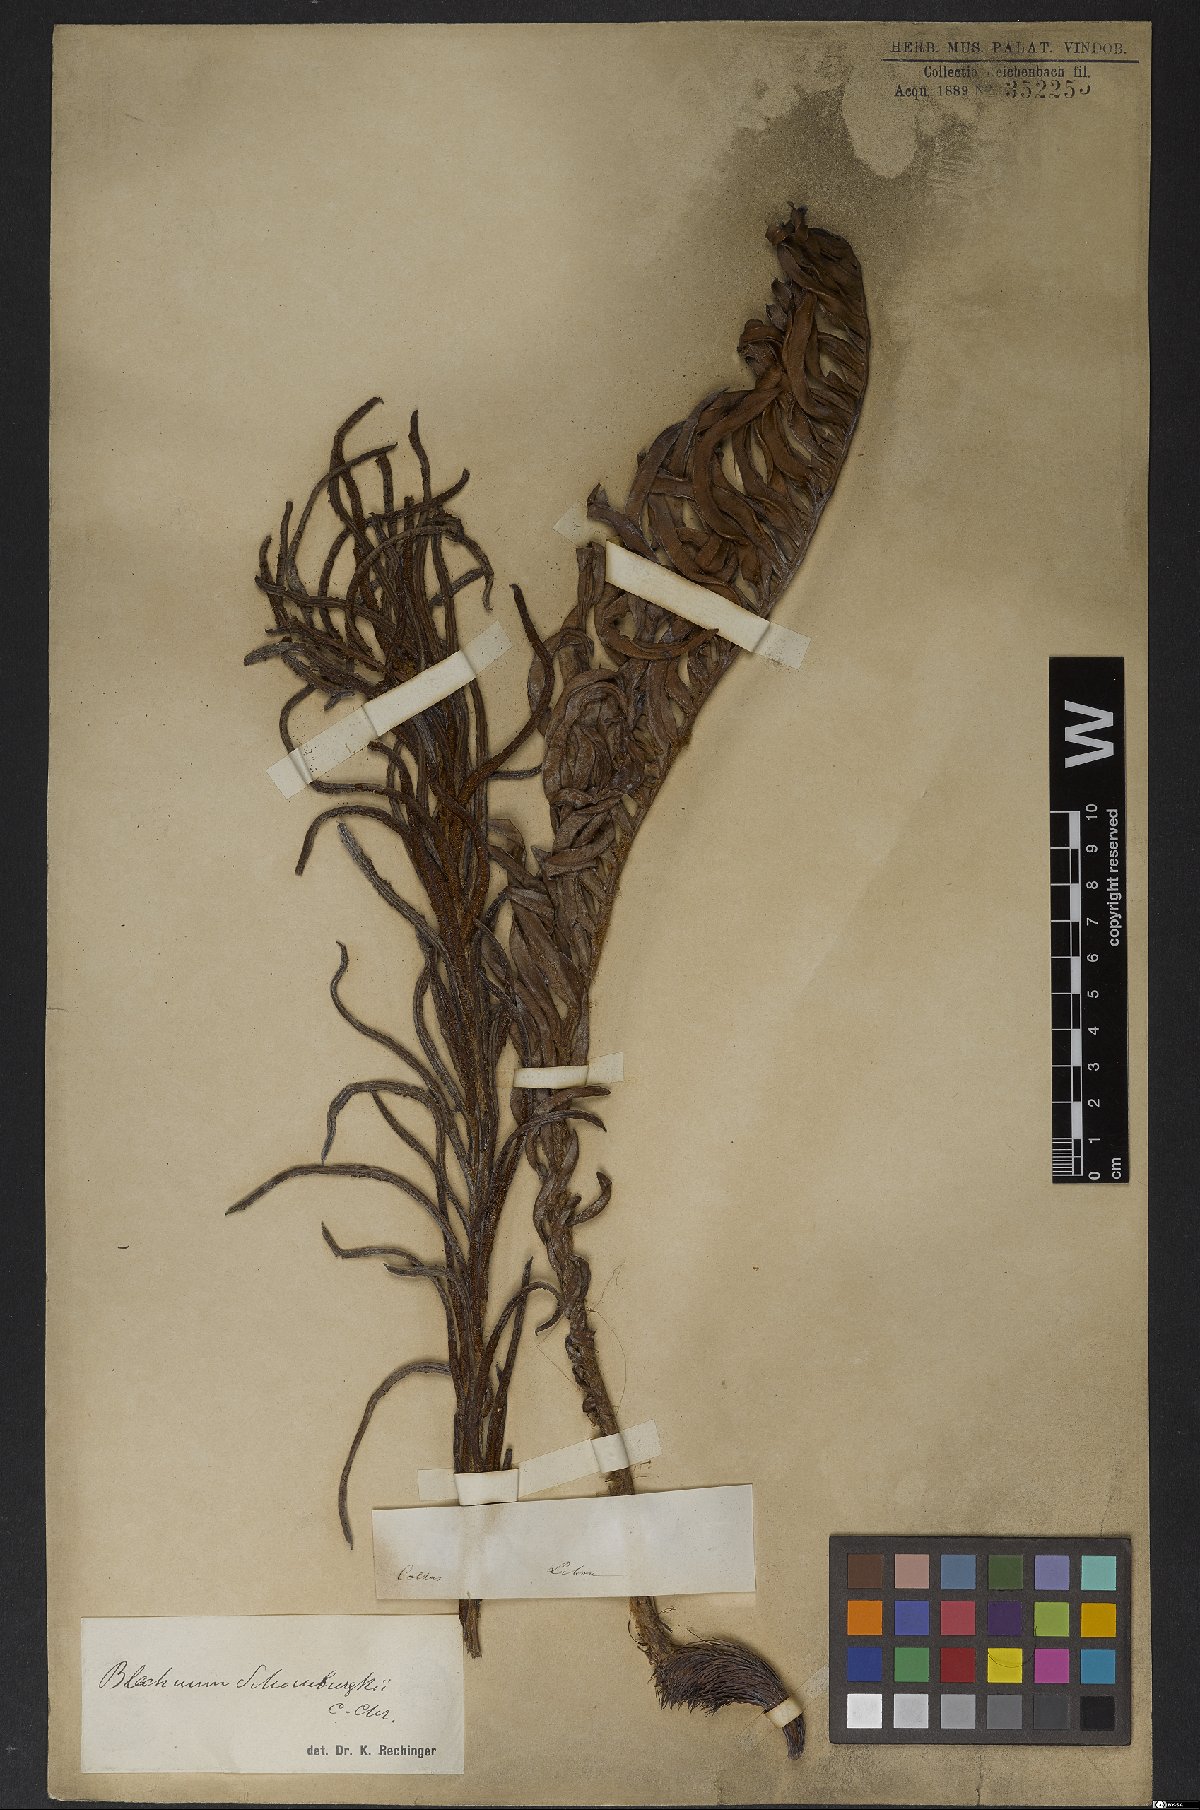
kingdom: Plantae
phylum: Tracheophyta
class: Polypodiopsida
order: Polypodiales
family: Blechnaceae
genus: Lomariocycas
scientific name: Lomariocycas schomburgkii
